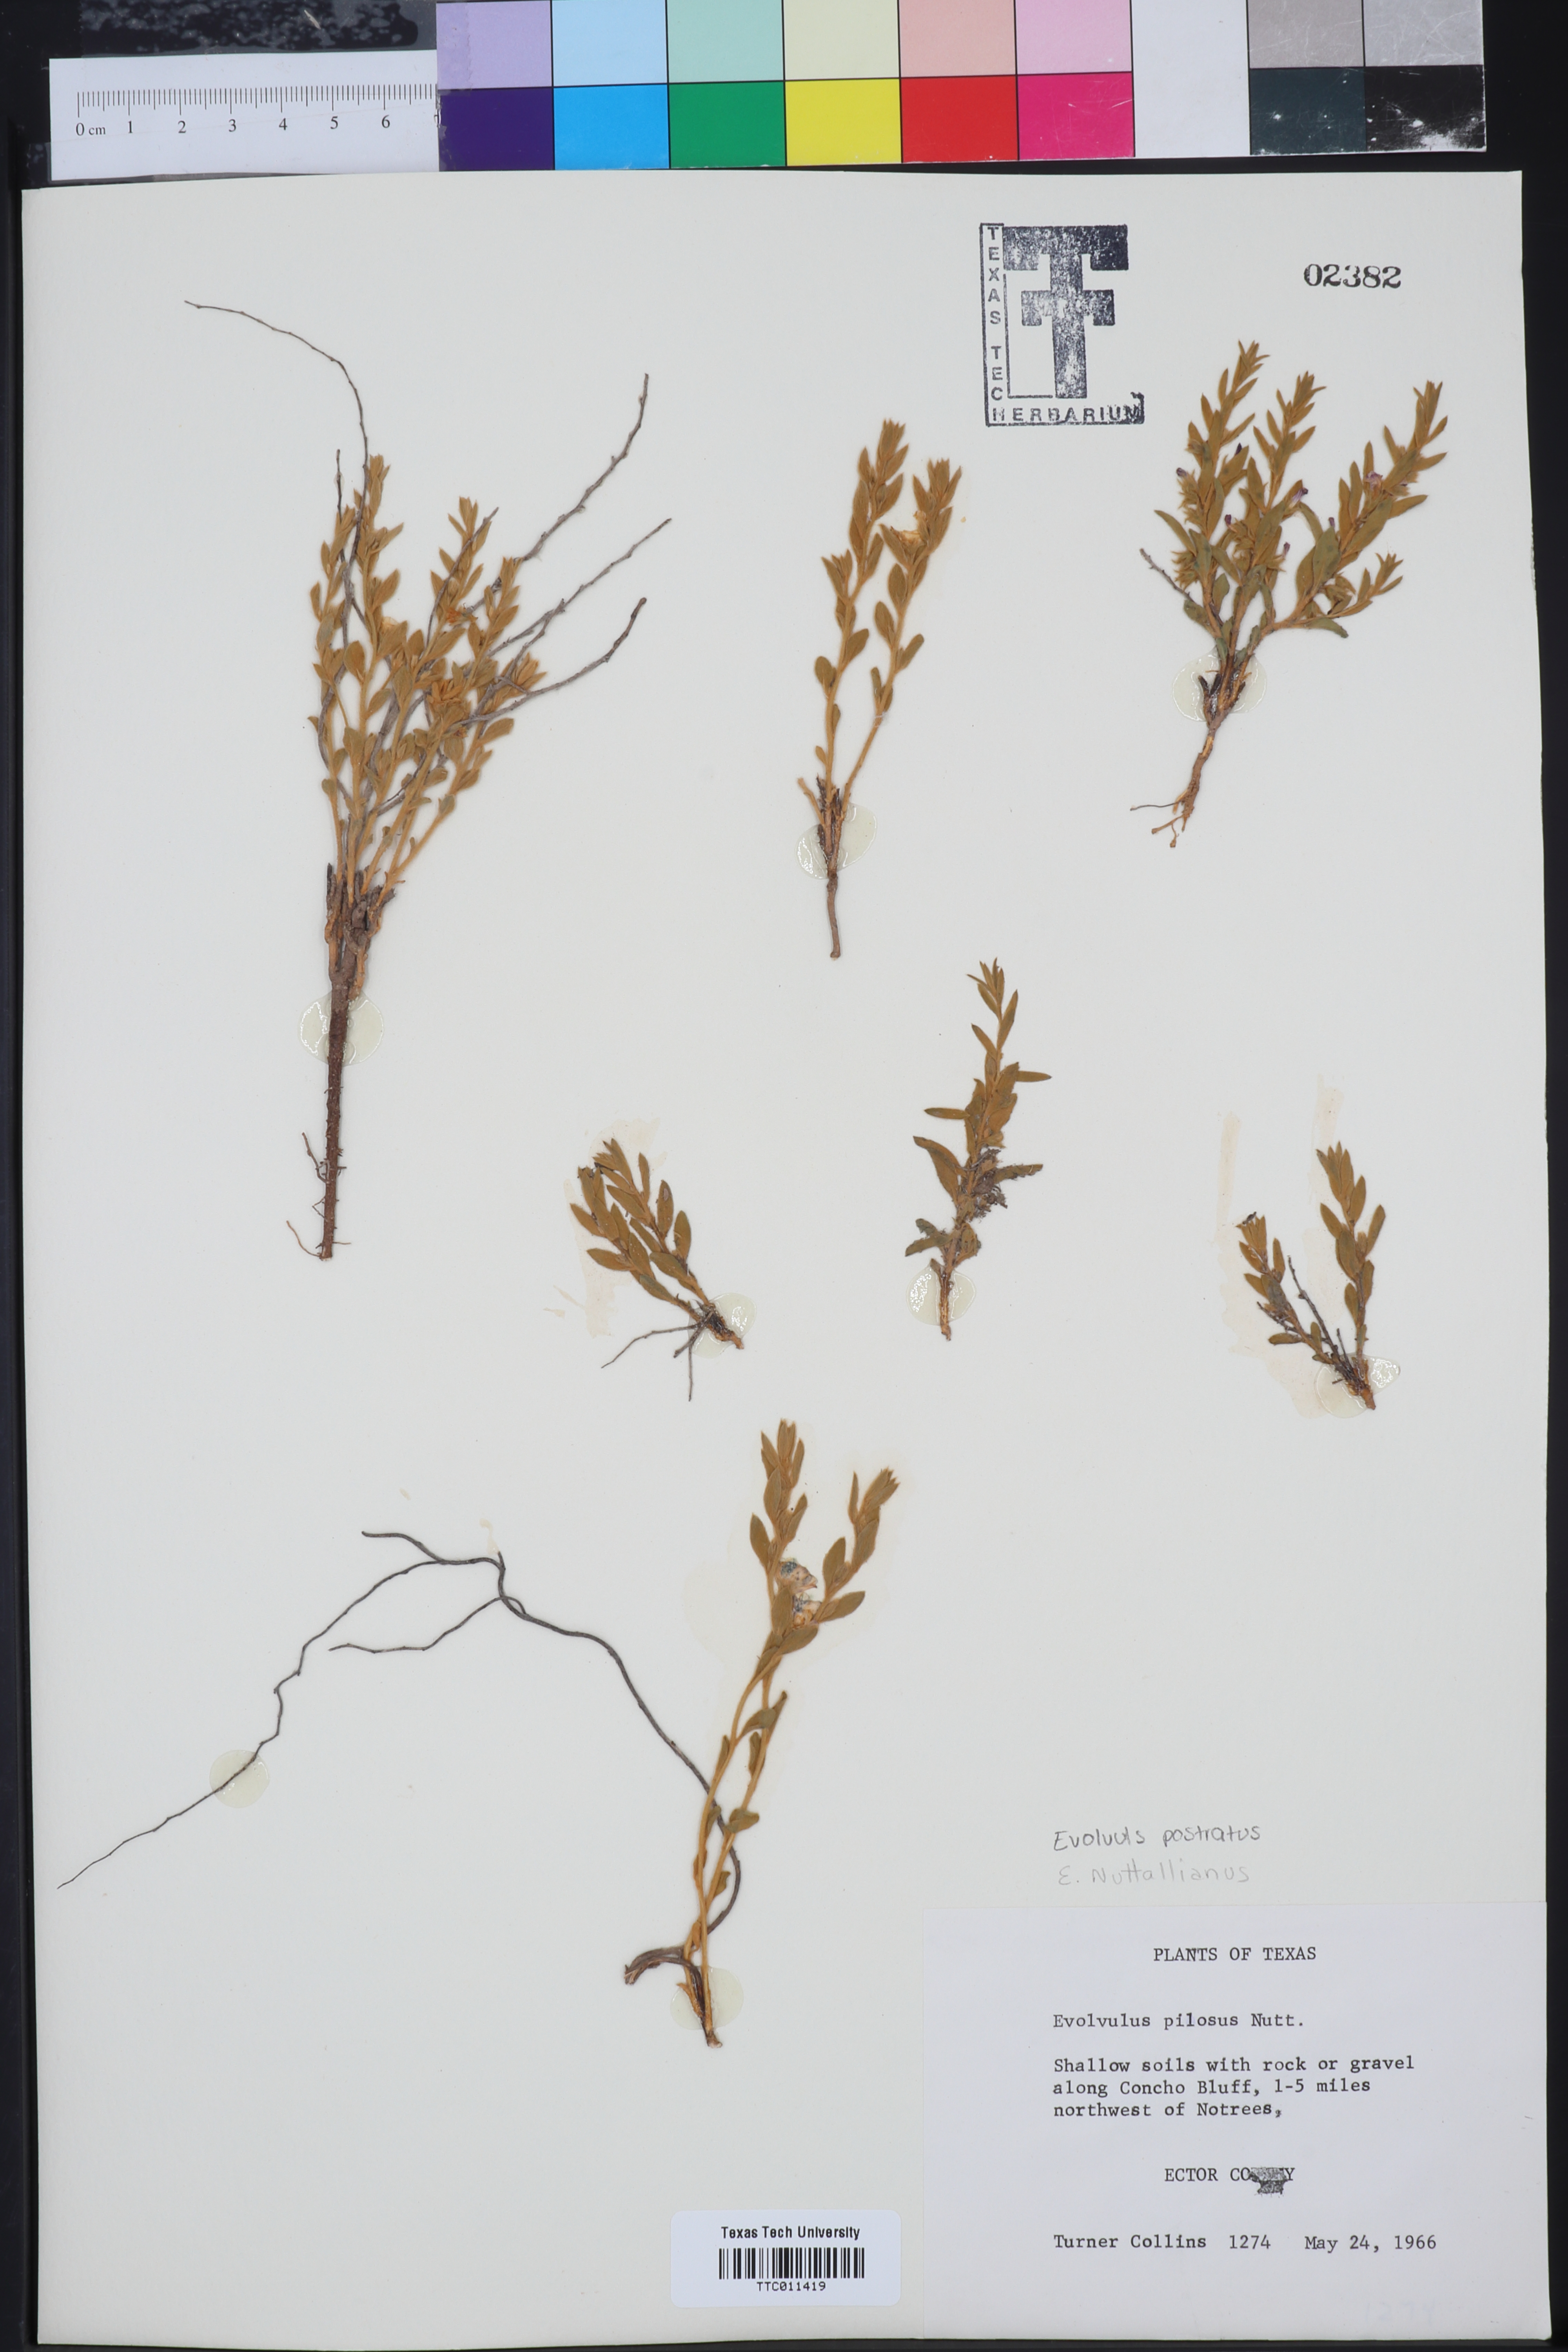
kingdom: Plantae
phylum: Tracheophyta
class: Magnoliopsida
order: Solanales
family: Convolvulaceae
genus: Evolvulus
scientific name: Evolvulus nuttallianus
